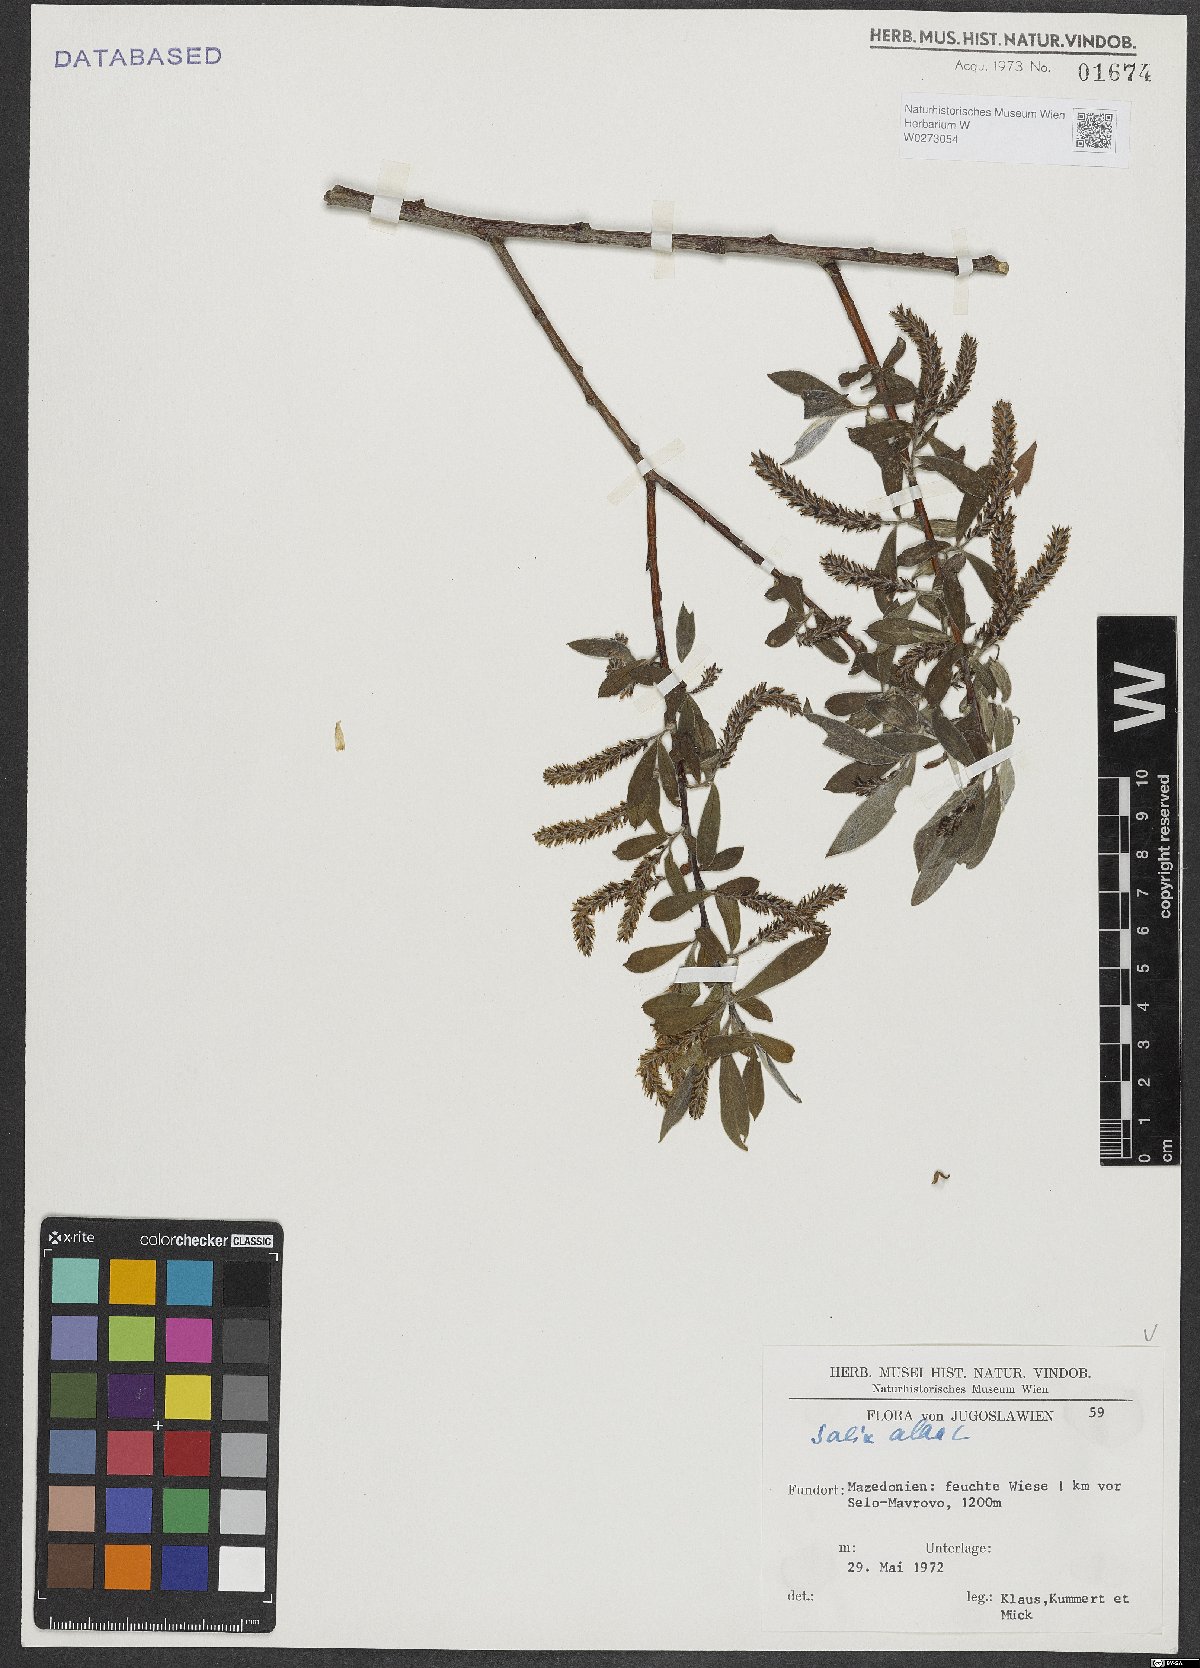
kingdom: Plantae
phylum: Tracheophyta
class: Magnoliopsida
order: Malpighiales
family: Salicaceae
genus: Salix
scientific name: Salix alba
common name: White willow
